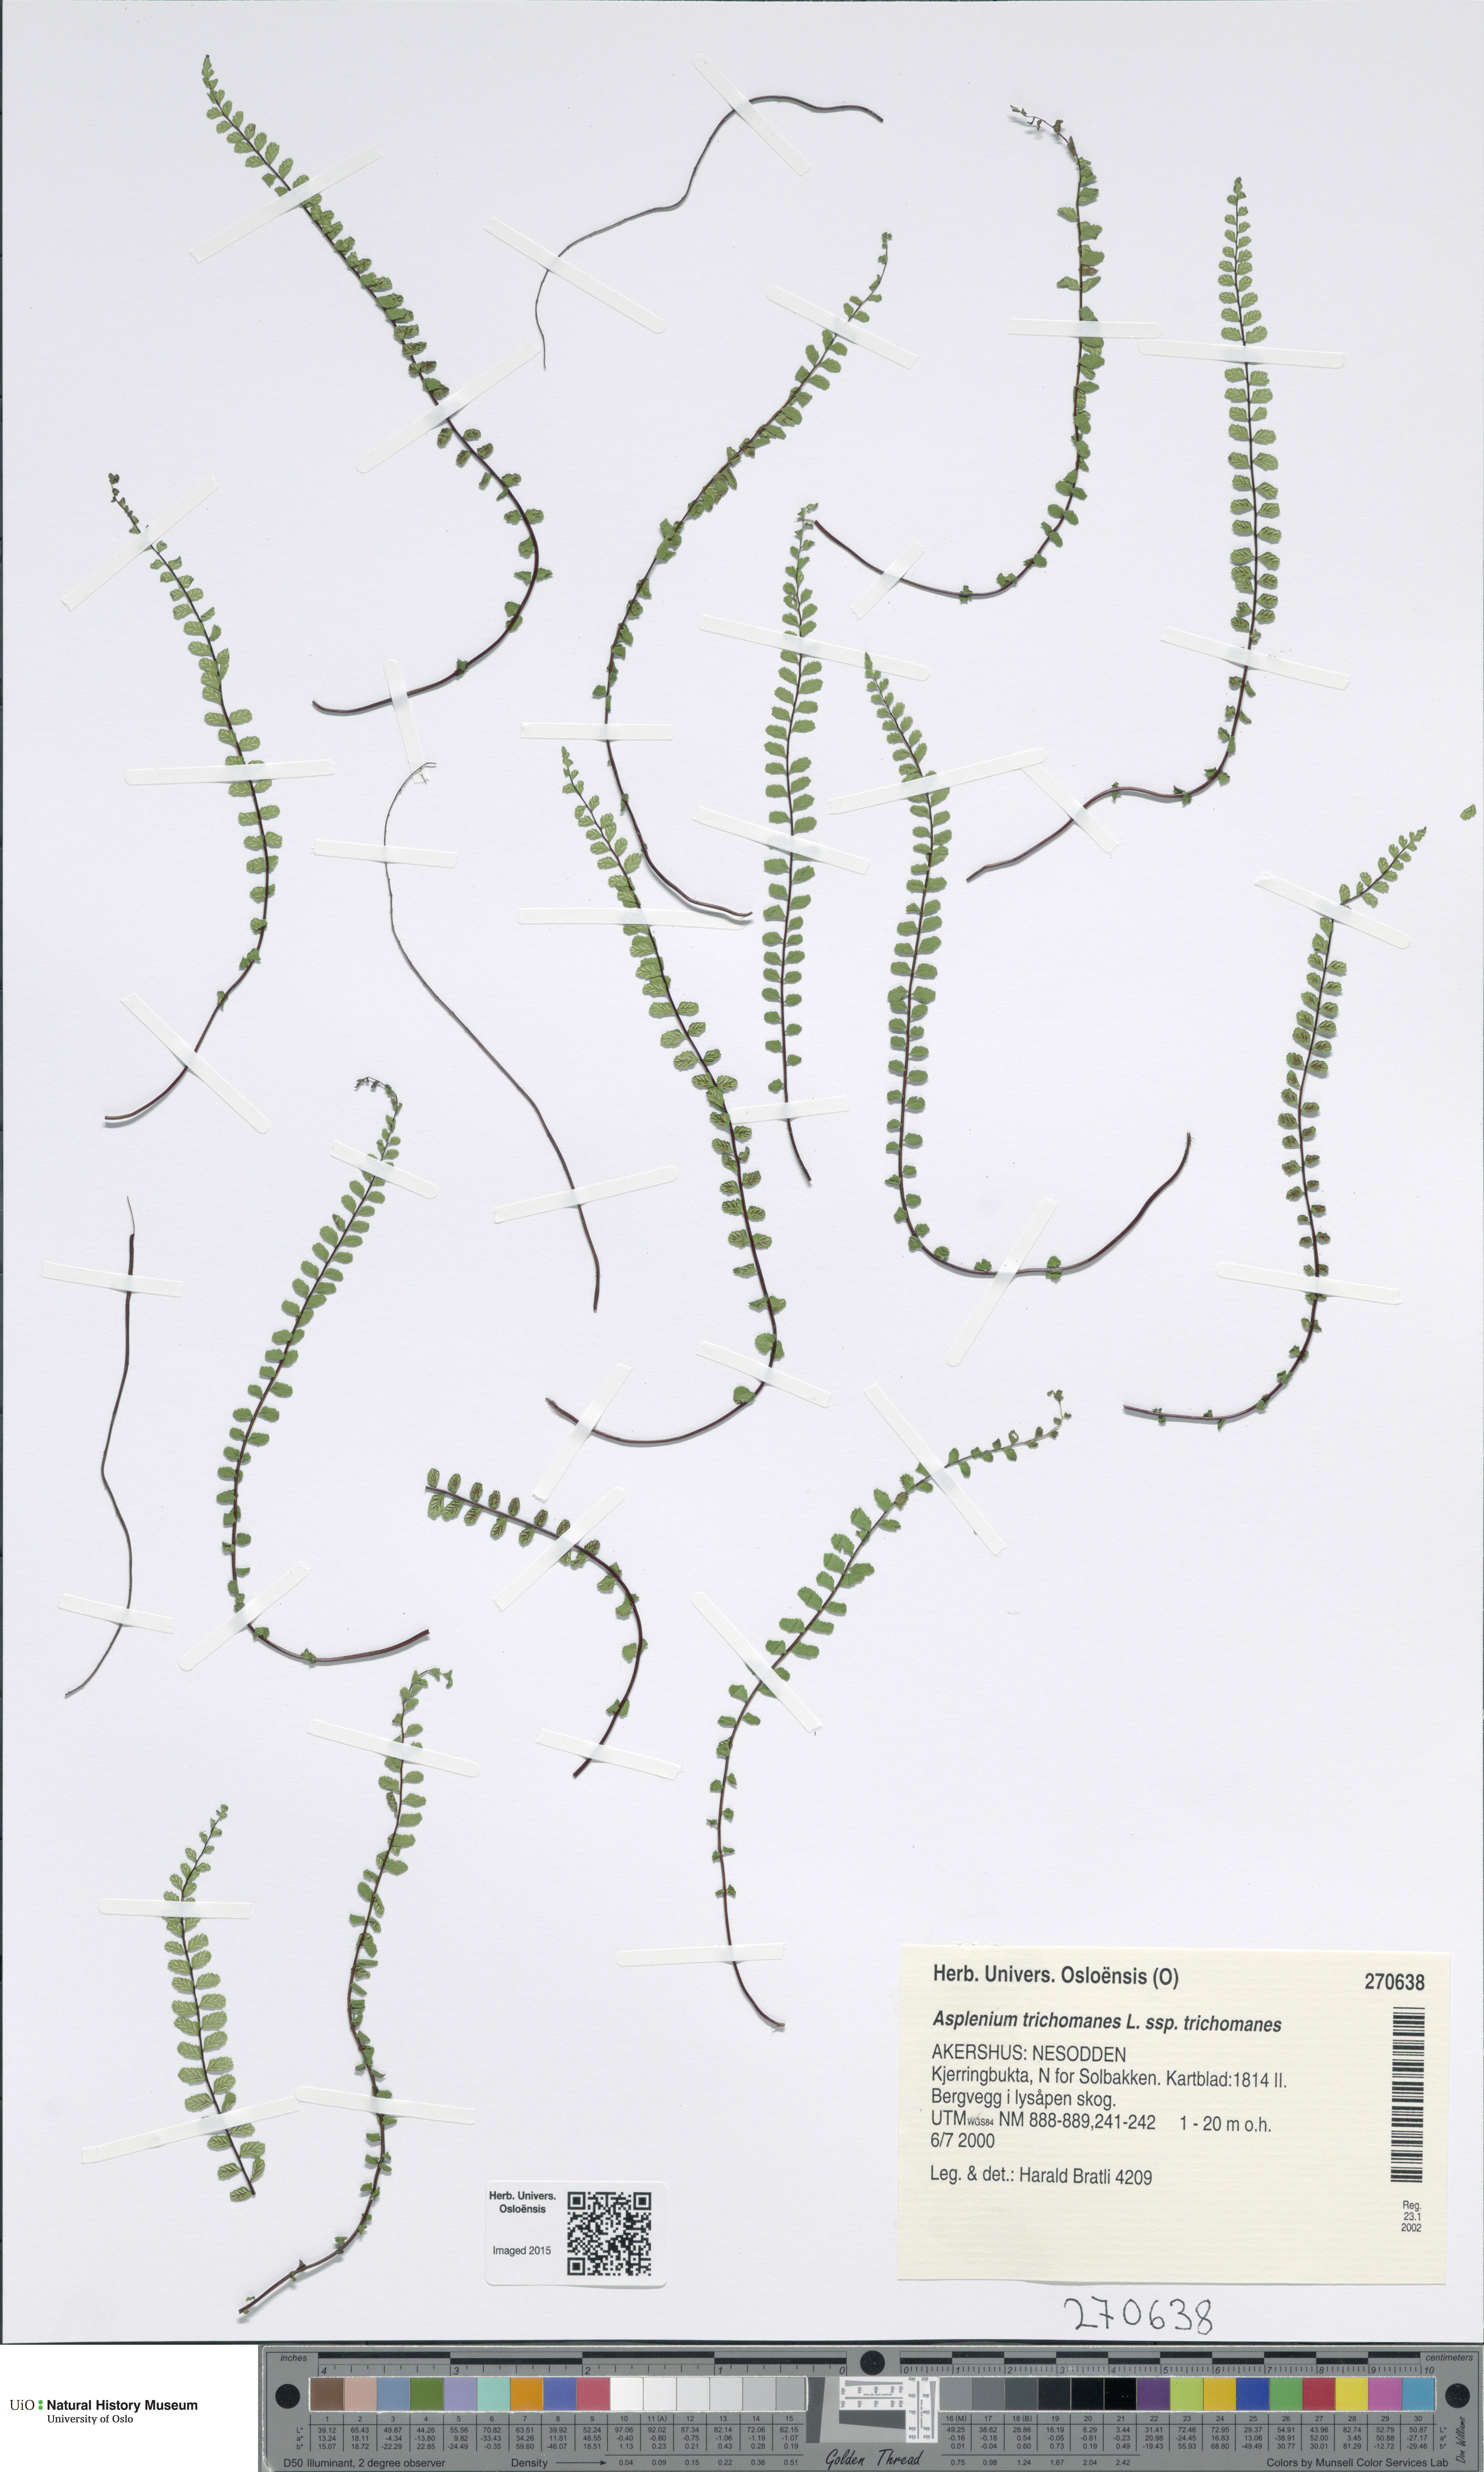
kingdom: Plantae
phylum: Tracheophyta
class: Polypodiopsida
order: Polypodiales
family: Aspleniaceae
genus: Asplenium
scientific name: Asplenium trichomanes
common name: Maidenhair spleenwort
